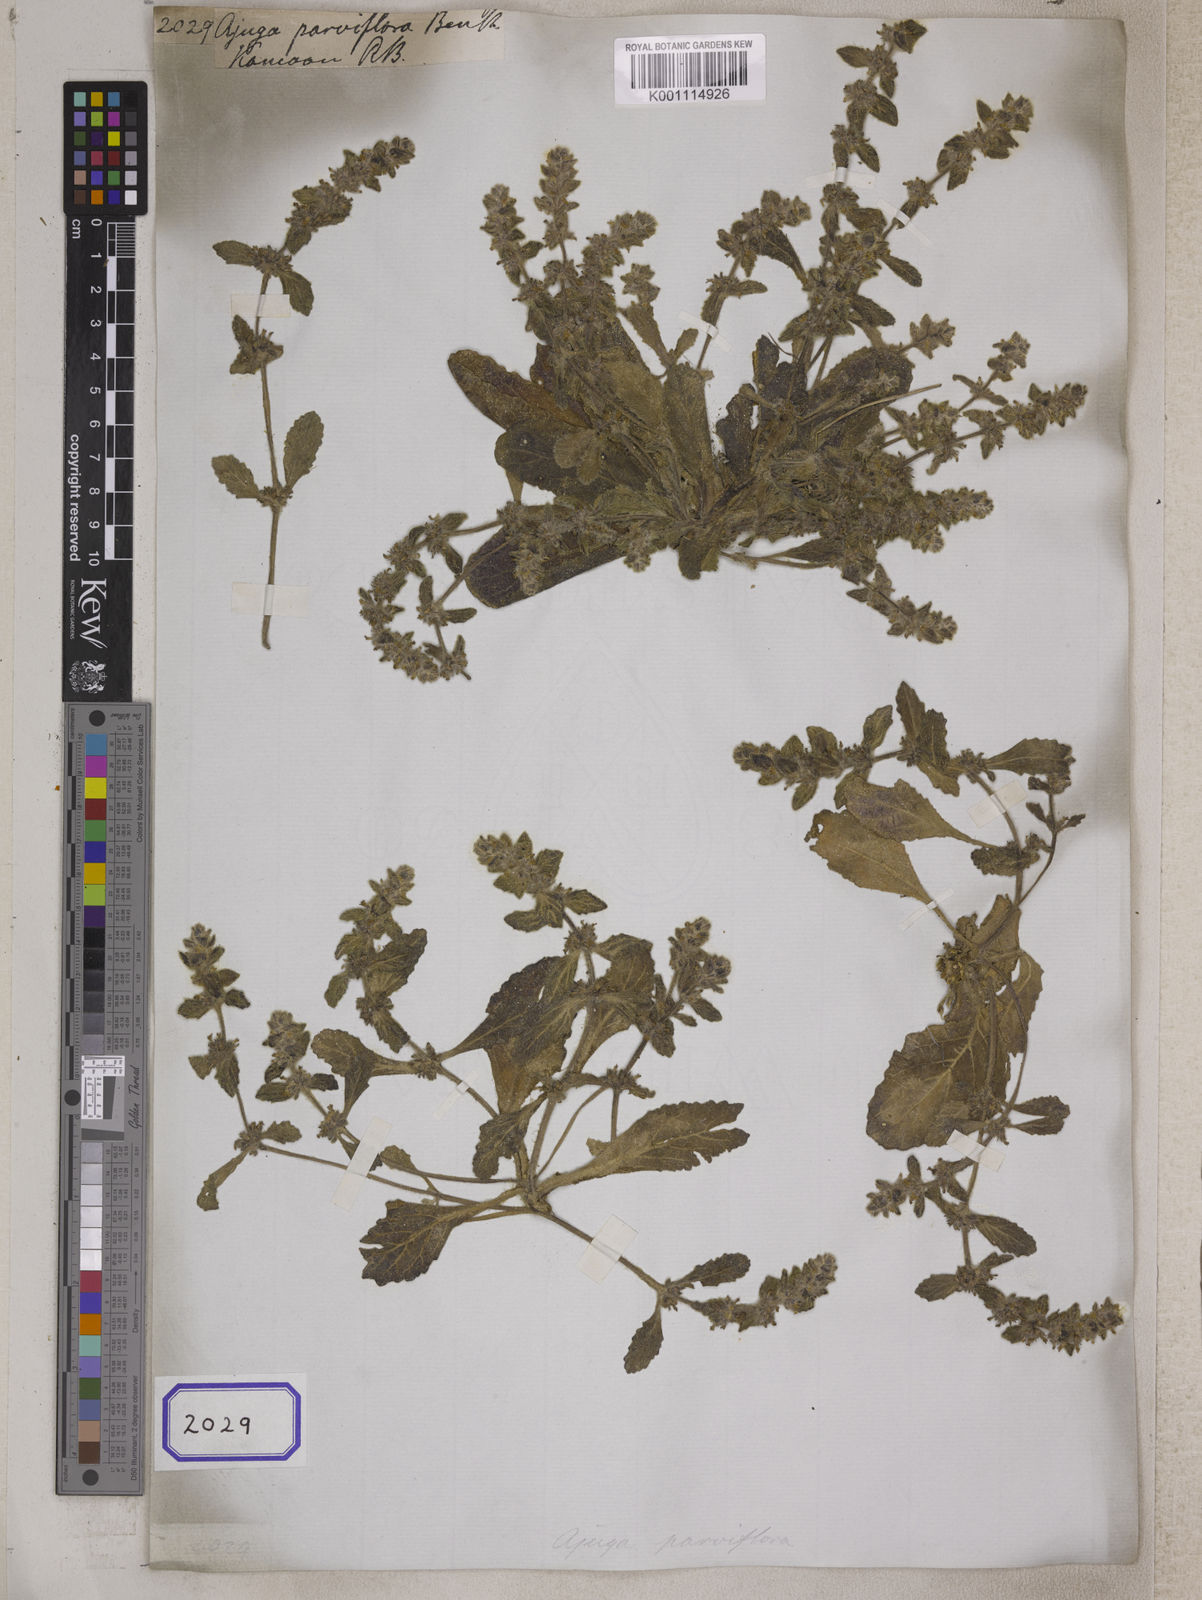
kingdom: Plantae
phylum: Tracheophyta
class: Magnoliopsida
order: Lamiales
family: Lamiaceae
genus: Ajuga
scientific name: Ajuga parviflora
